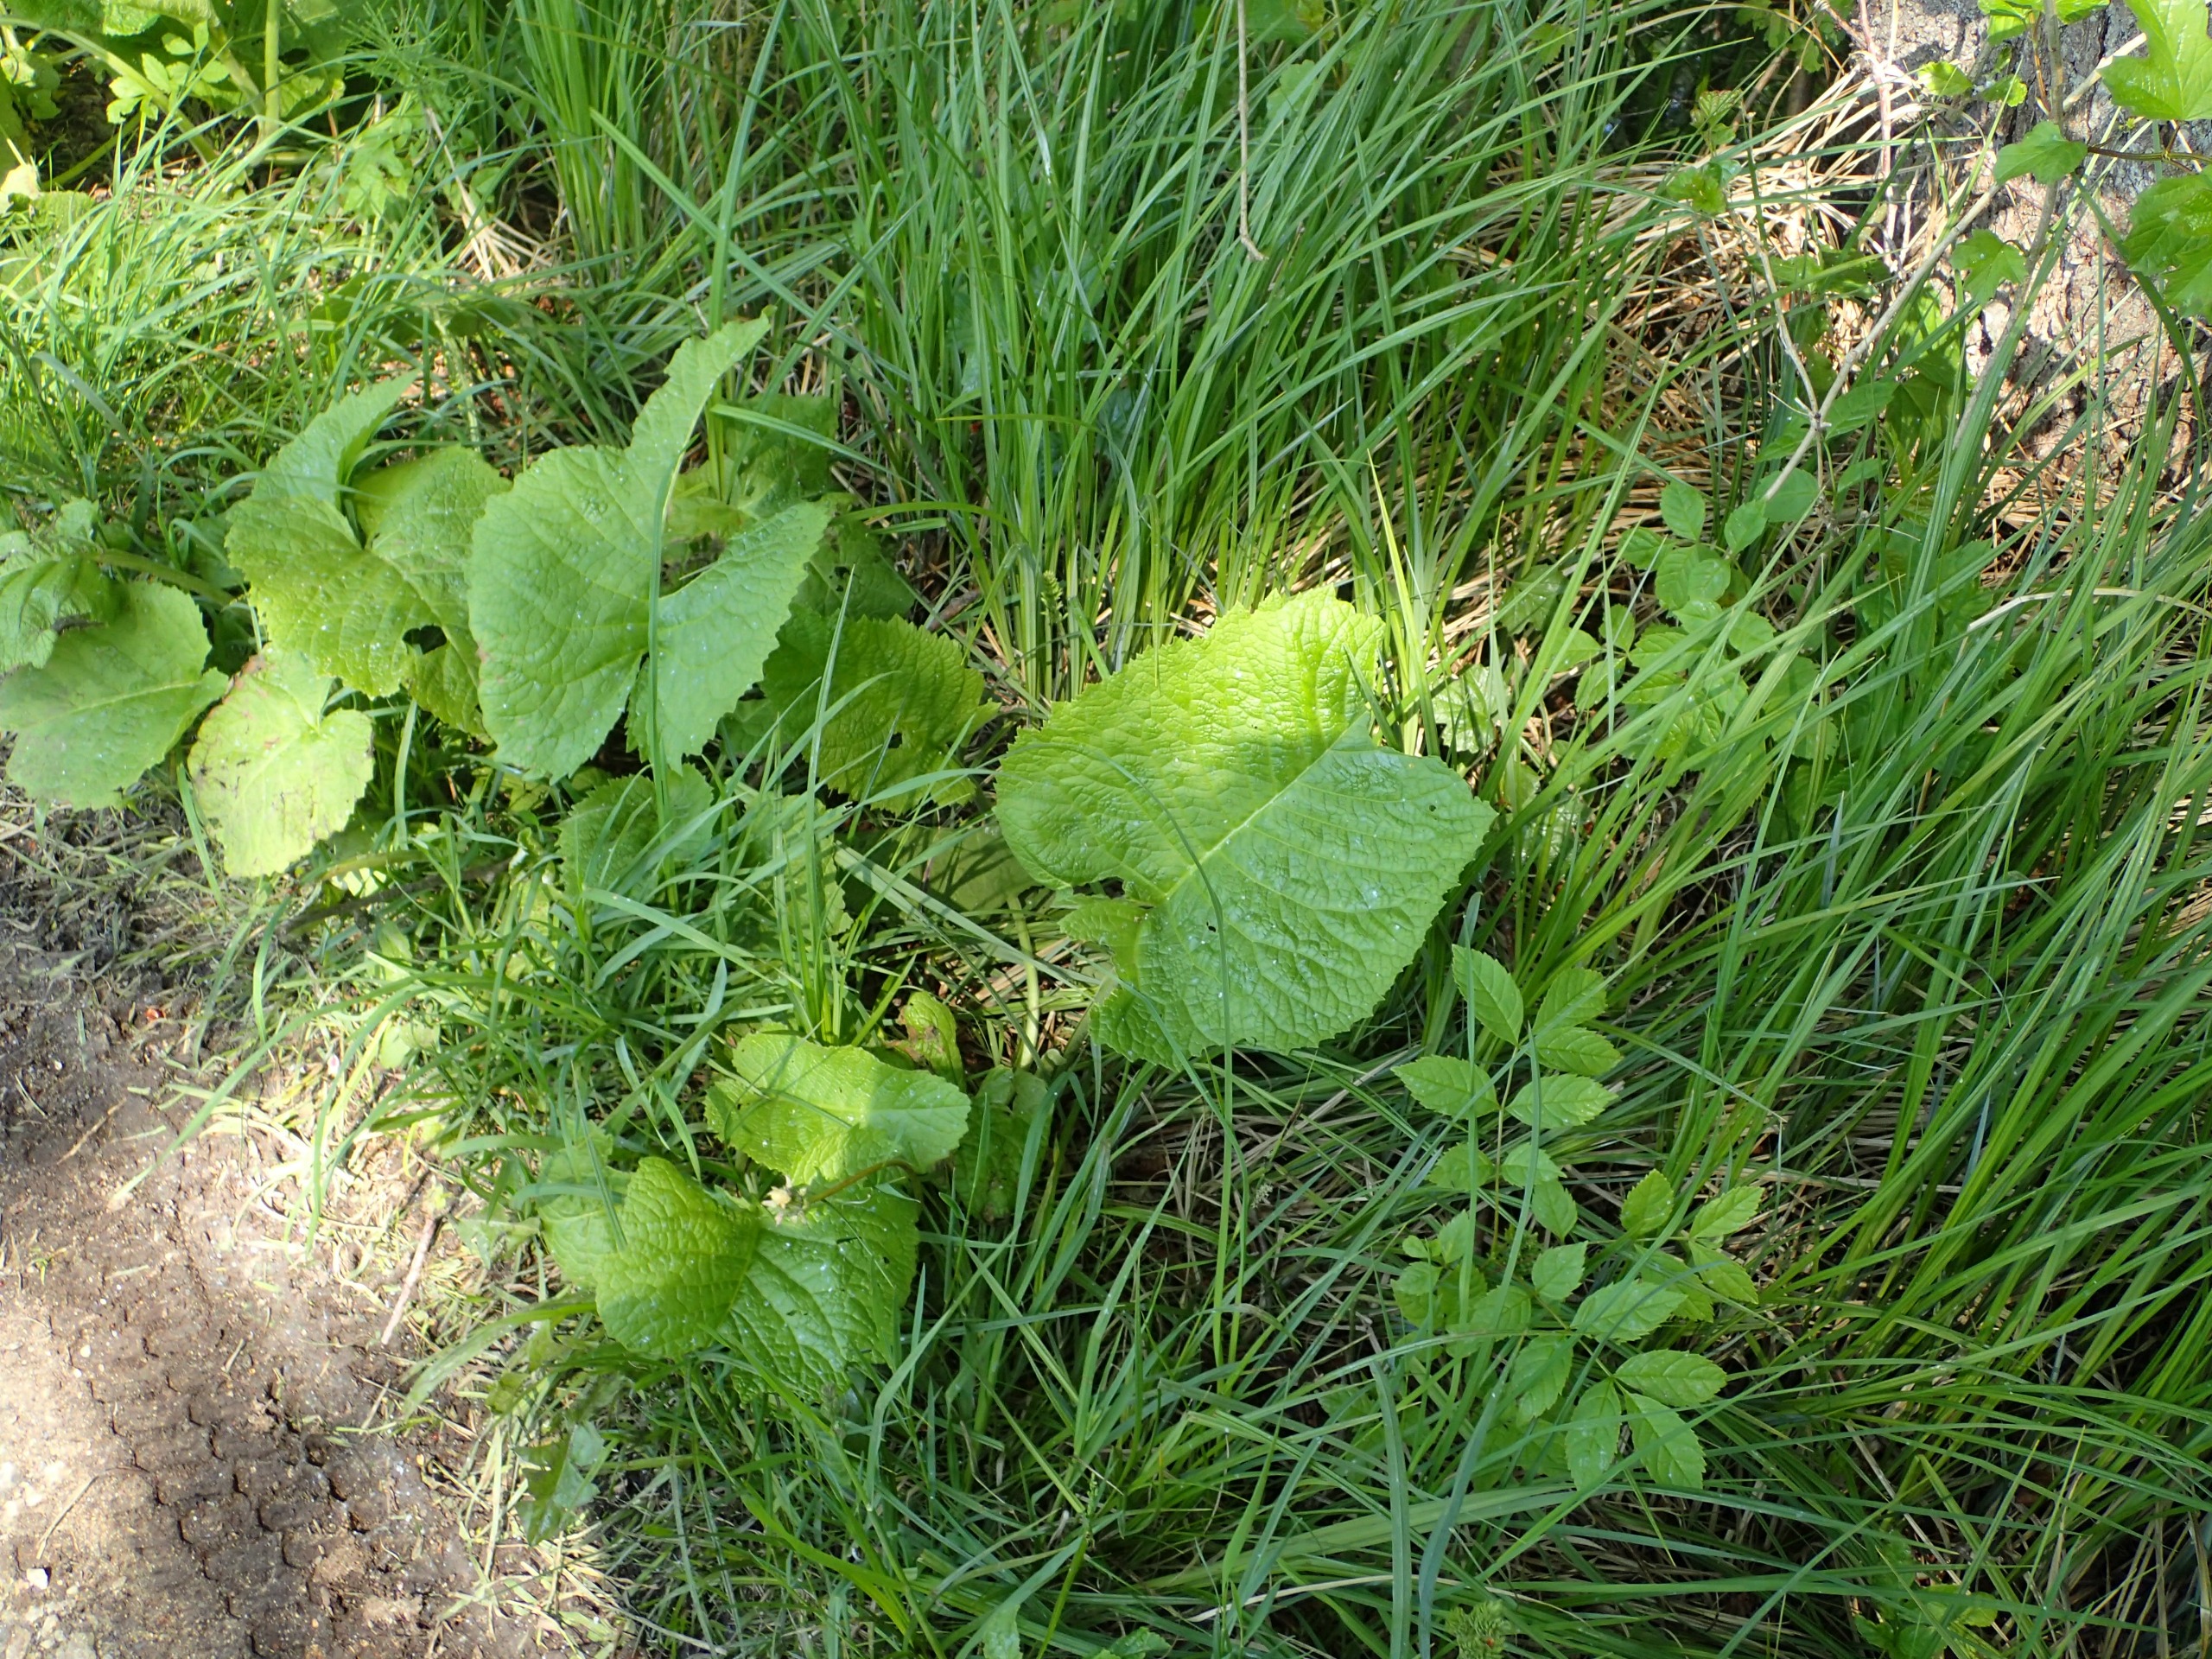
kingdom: Plantae
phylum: Tracheophyta
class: Magnoliopsida
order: Asterales
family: Asteraceae
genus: Telekia
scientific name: Telekia speciosa
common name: Tusindstråle
